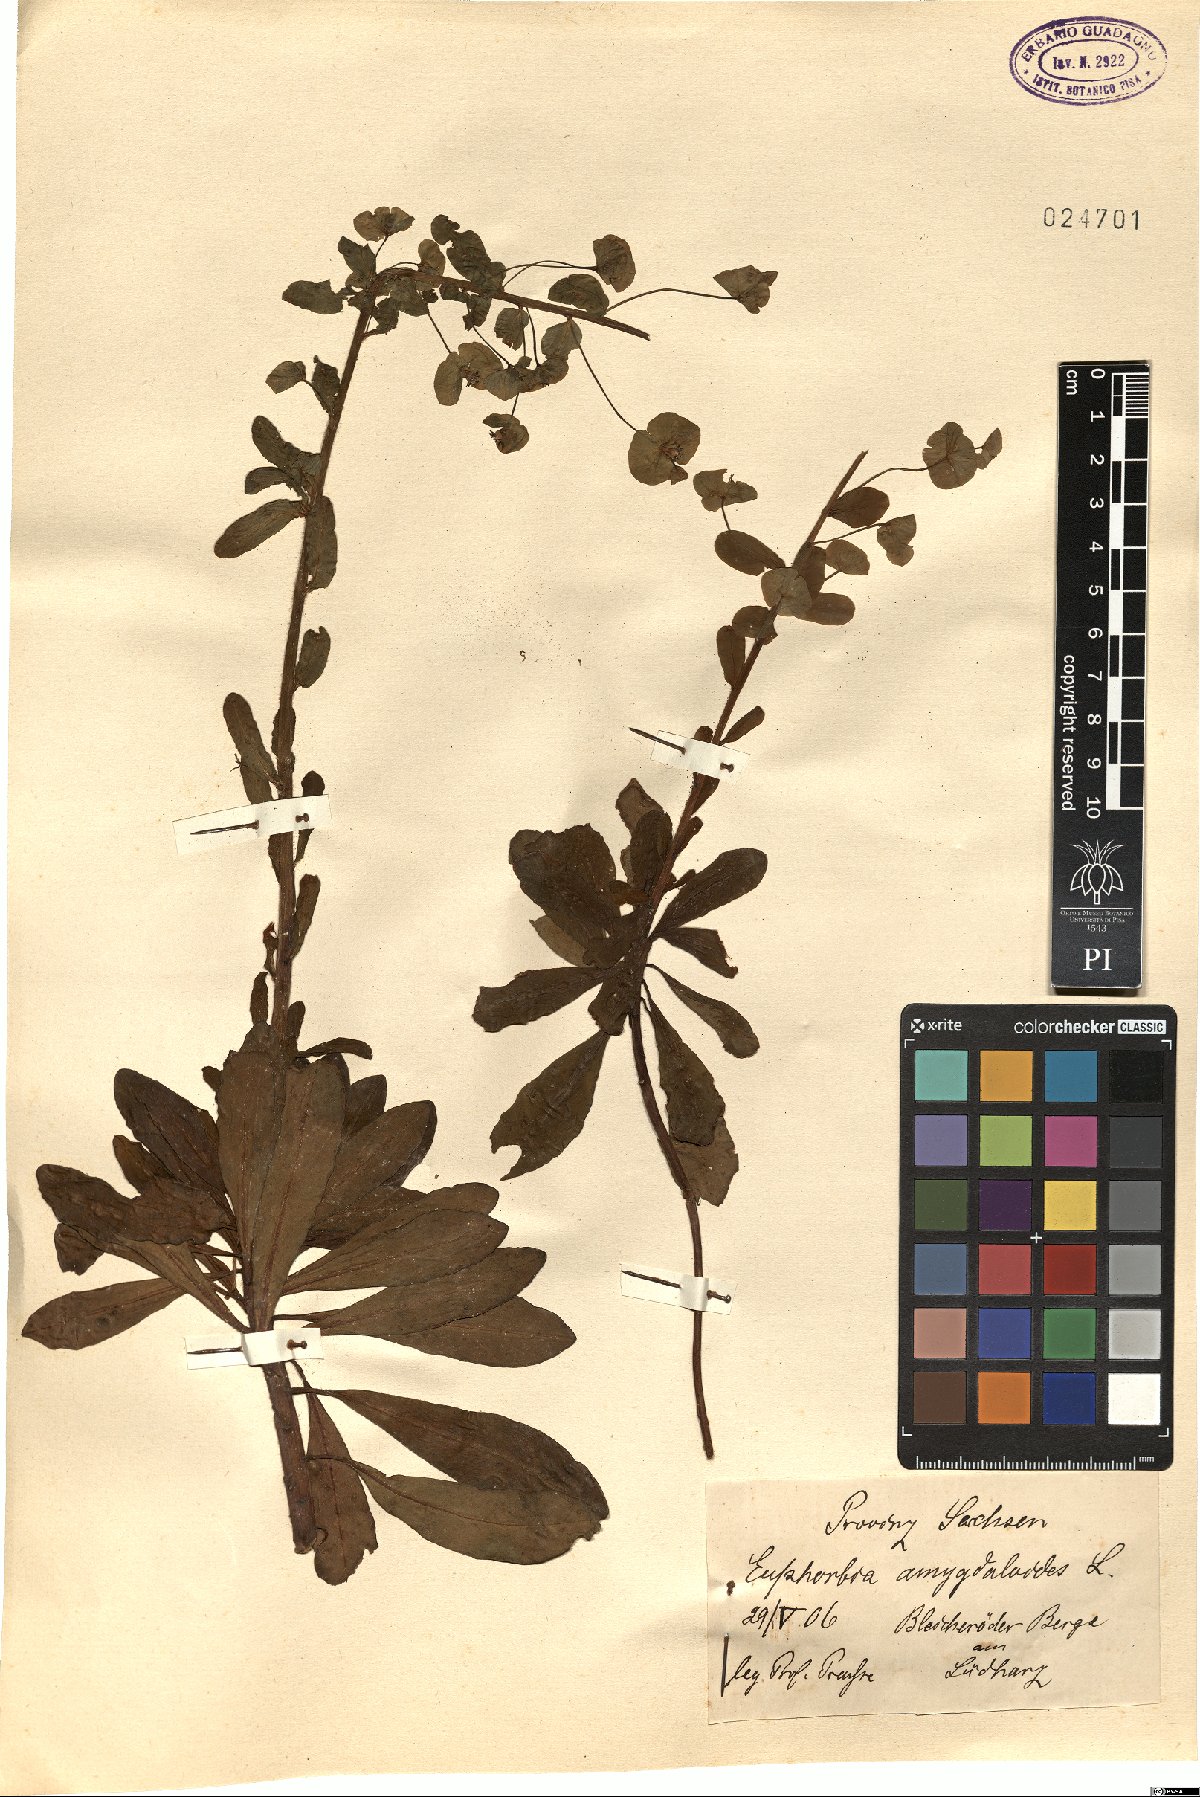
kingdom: Plantae
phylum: Tracheophyta
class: Magnoliopsida
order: Malpighiales
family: Euphorbiaceae
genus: Euphorbia
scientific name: Euphorbia amygdaloides
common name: Wood spurge
